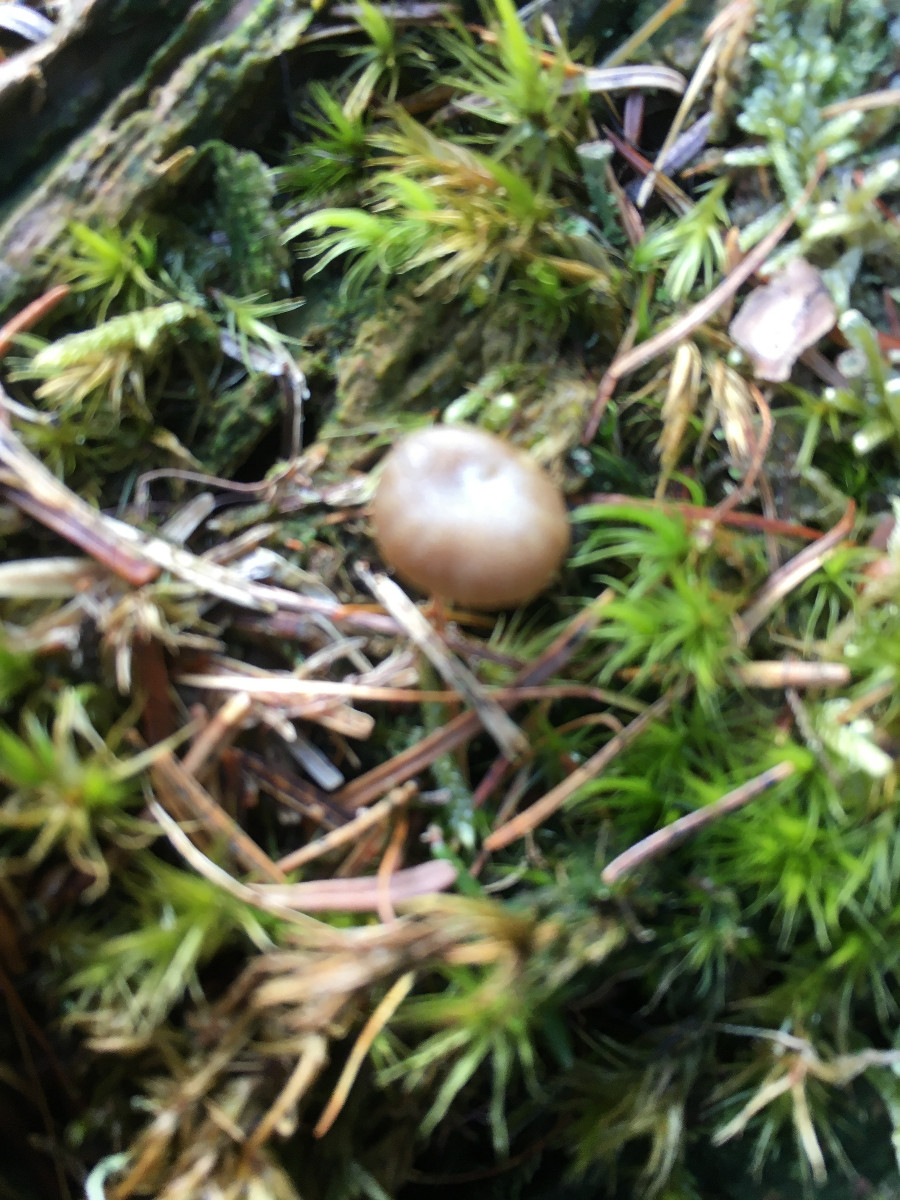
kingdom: Fungi
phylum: Basidiomycota
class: Agaricomycetes
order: Agaricales
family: Hygrophoraceae
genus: Lichenomphalia
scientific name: Lichenomphalia umbellifera
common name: tørve-lavhat
